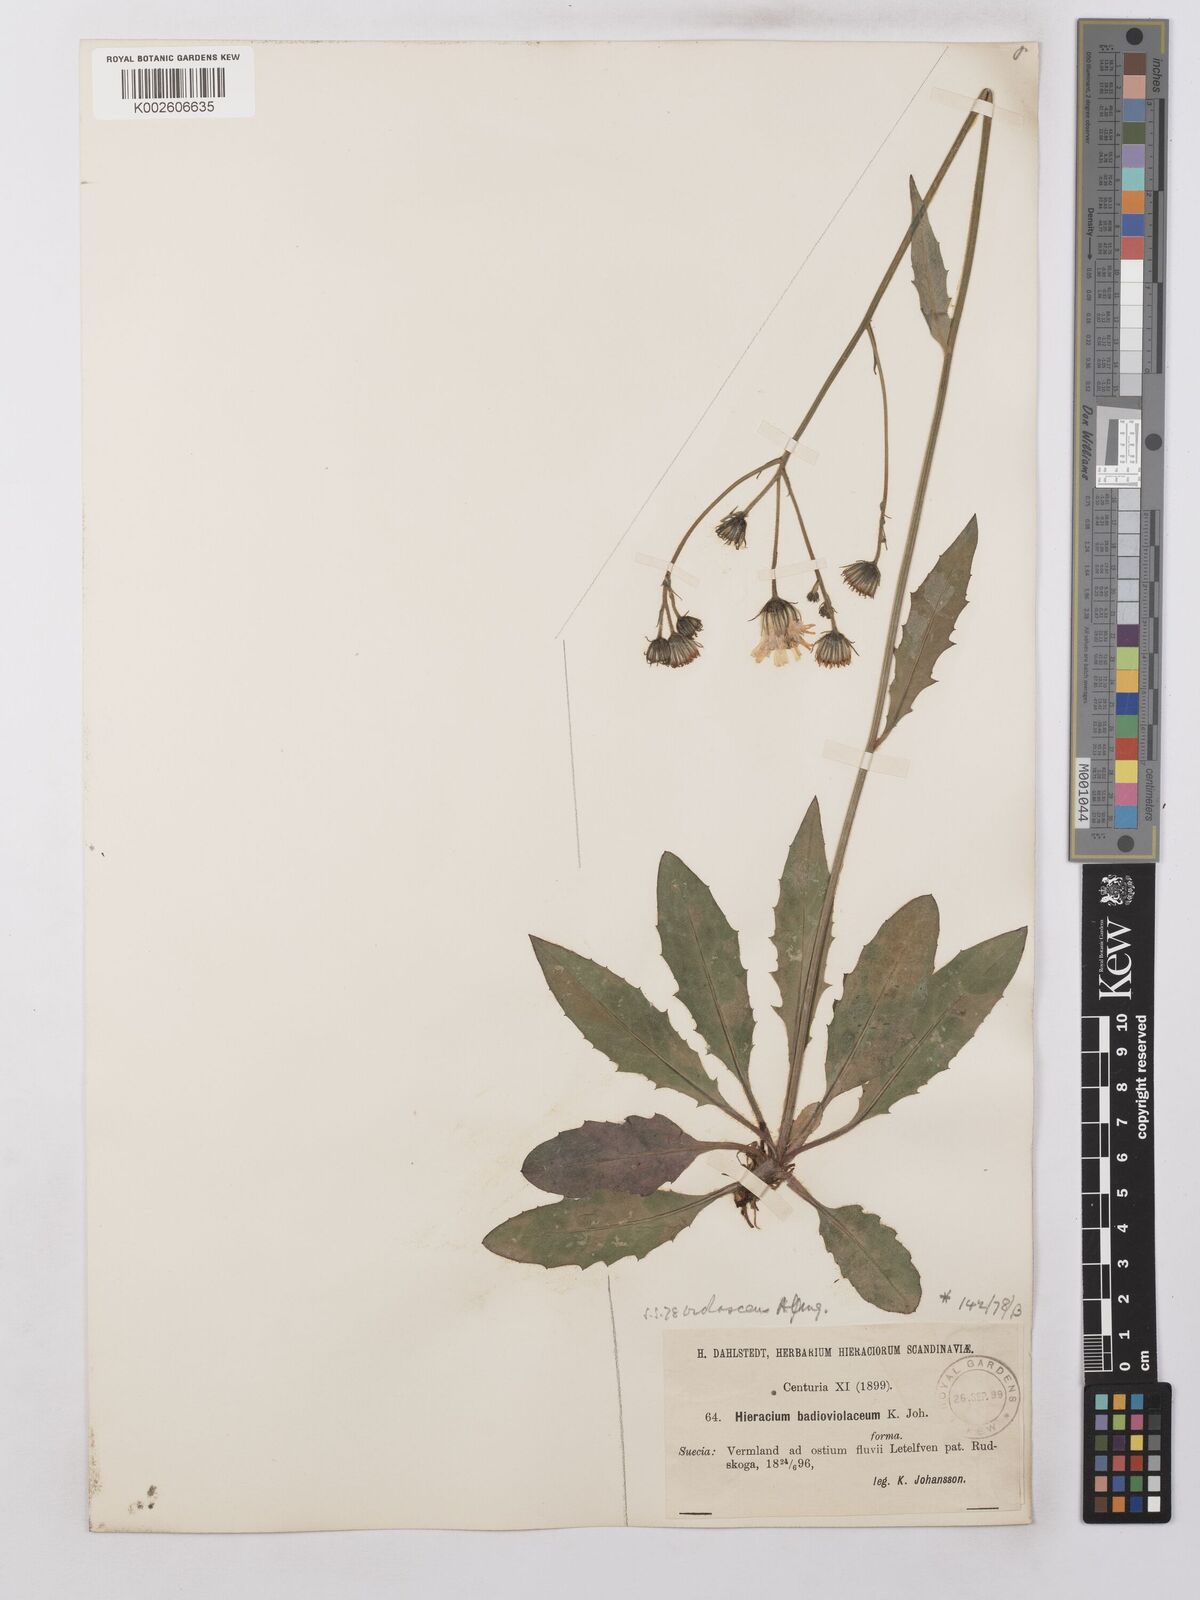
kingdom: Plantae
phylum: Tracheophyta
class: Magnoliopsida
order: Asterales
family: Asteraceae
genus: Hieracium
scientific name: Hieracium lachenalii
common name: Common hawkweed
